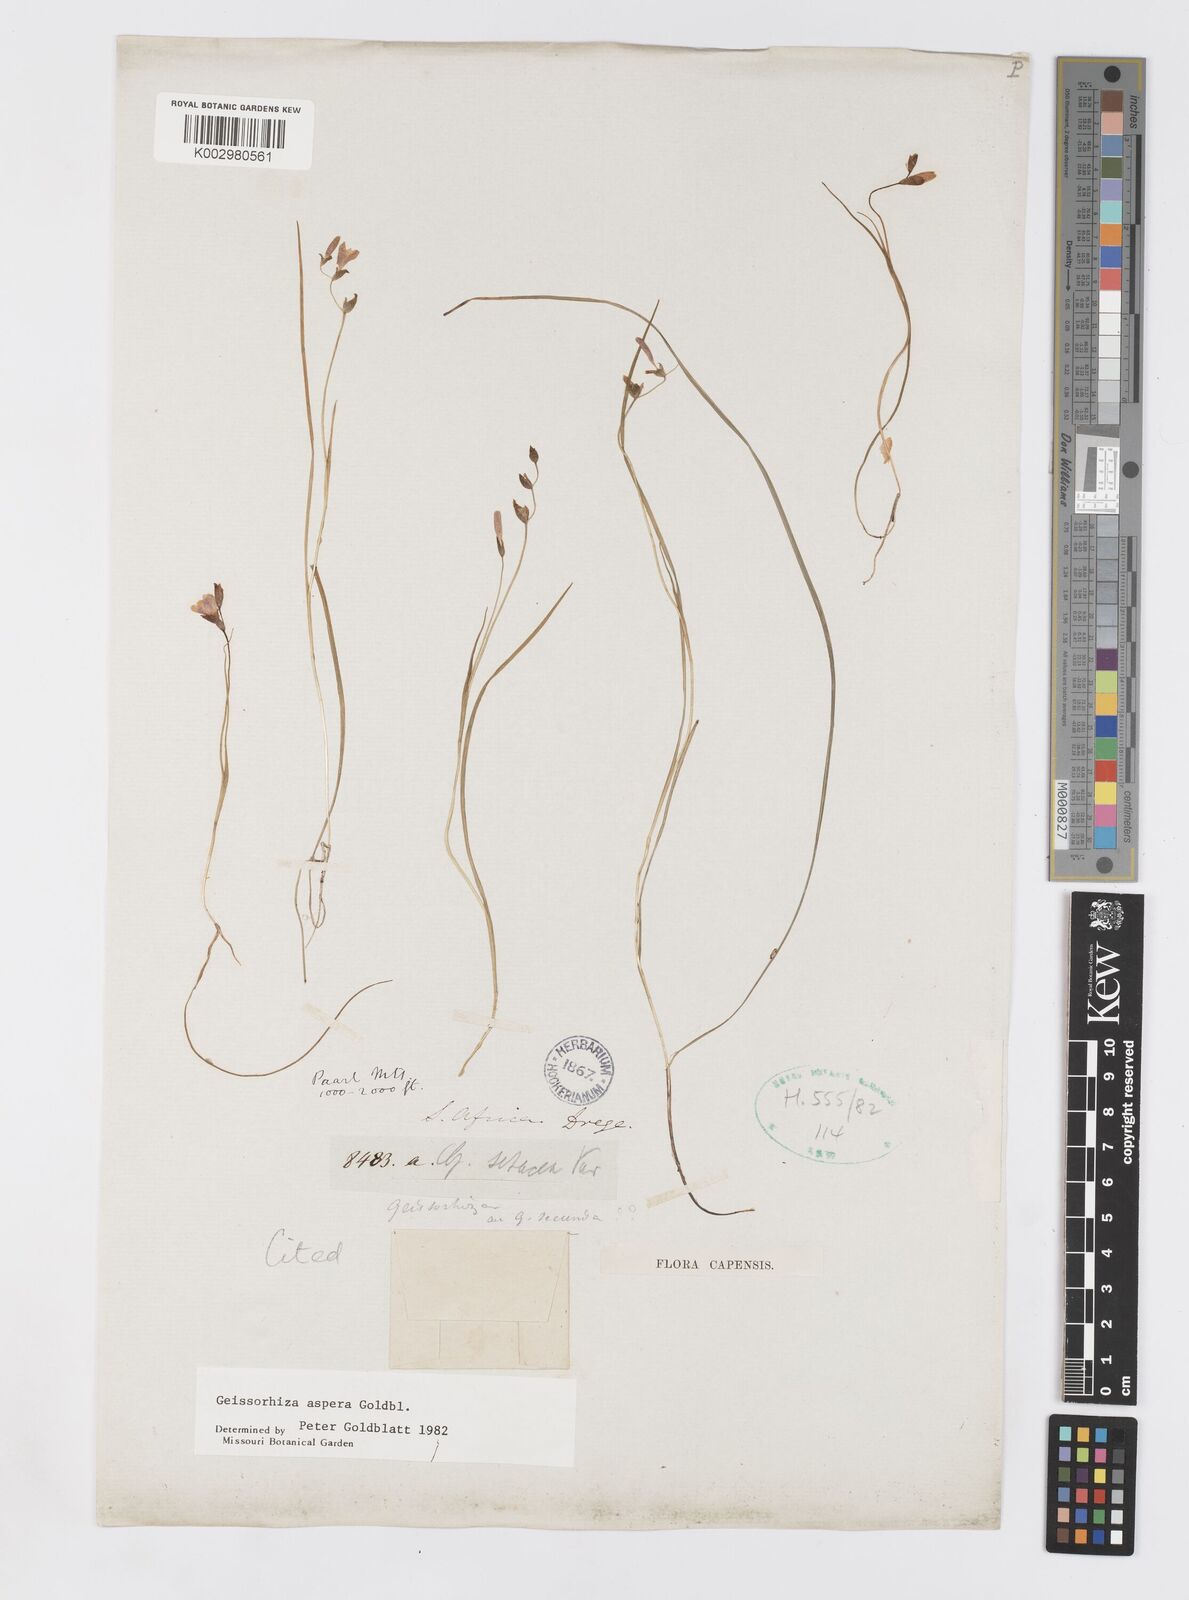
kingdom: Plantae
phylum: Tracheophyta
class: Liliopsida
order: Asparagales
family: Iridaceae
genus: Geissorhiza
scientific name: Geissorhiza aspera
